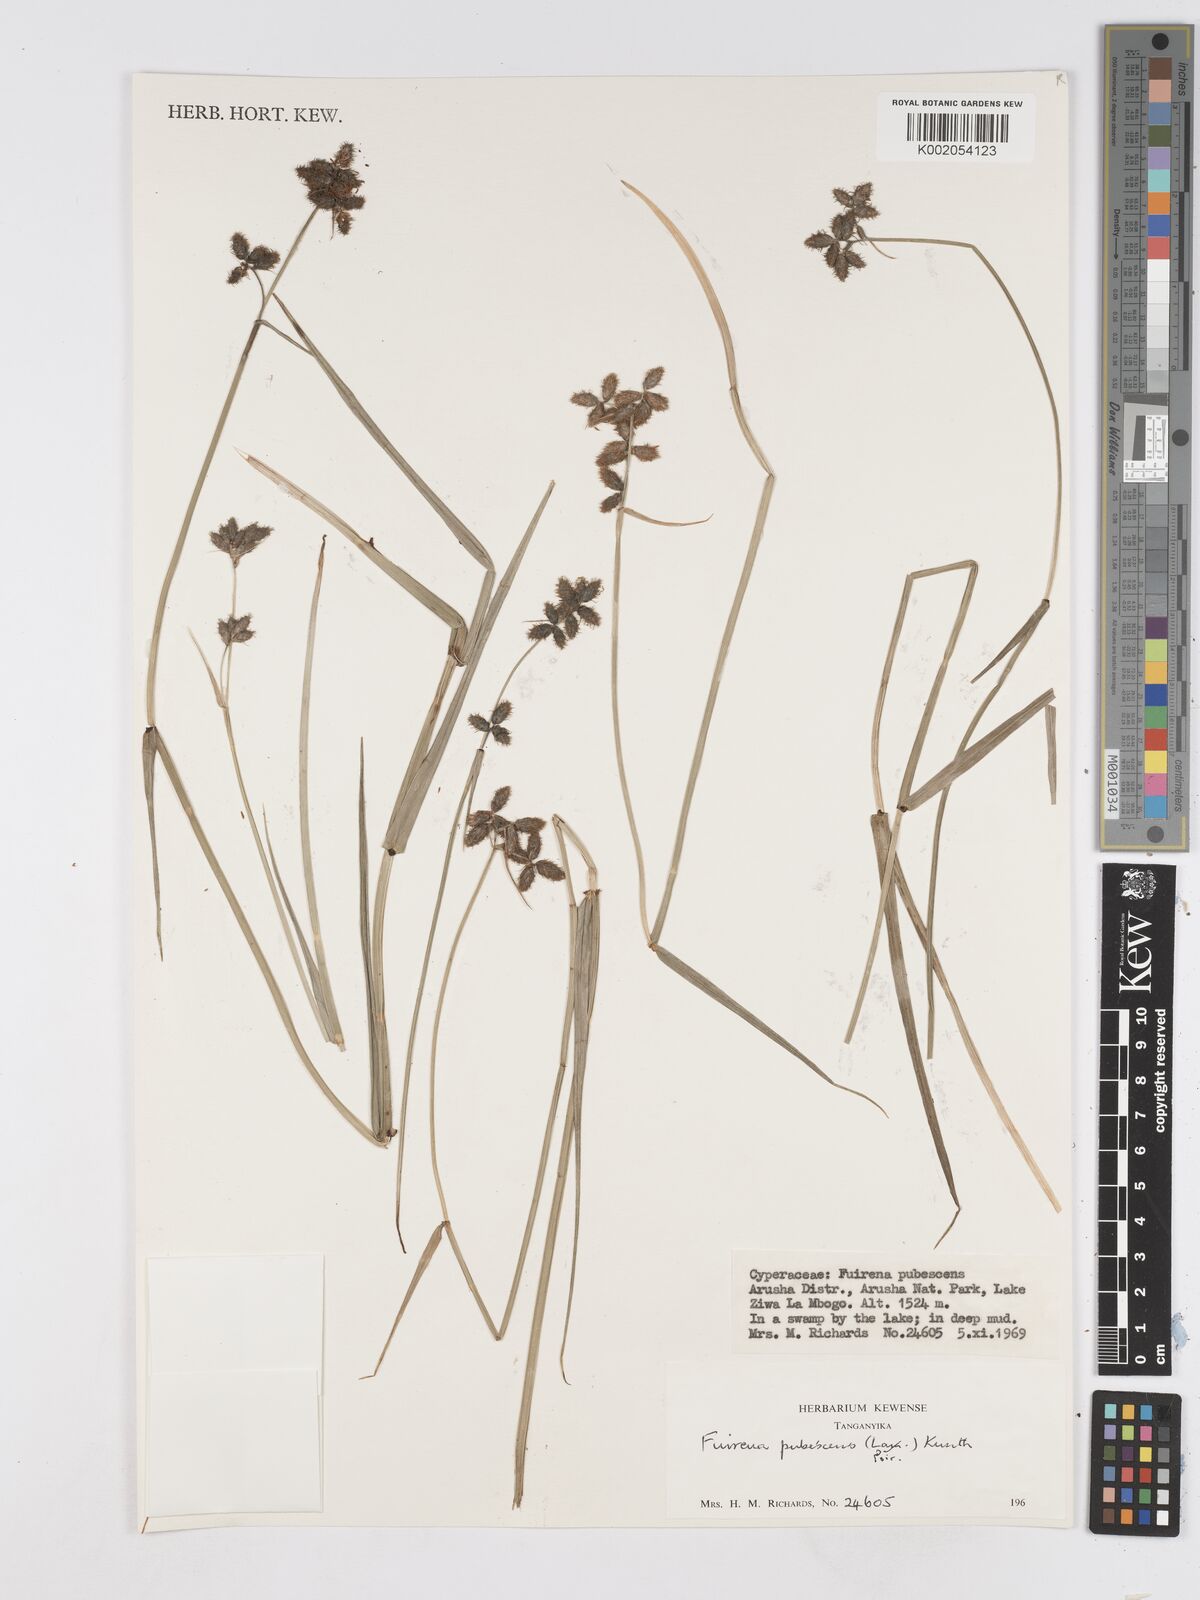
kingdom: Plantae
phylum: Tracheophyta
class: Liliopsida
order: Poales
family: Cyperaceae
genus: Fuirena
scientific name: Fuirena pubescens
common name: Hairy sedge
